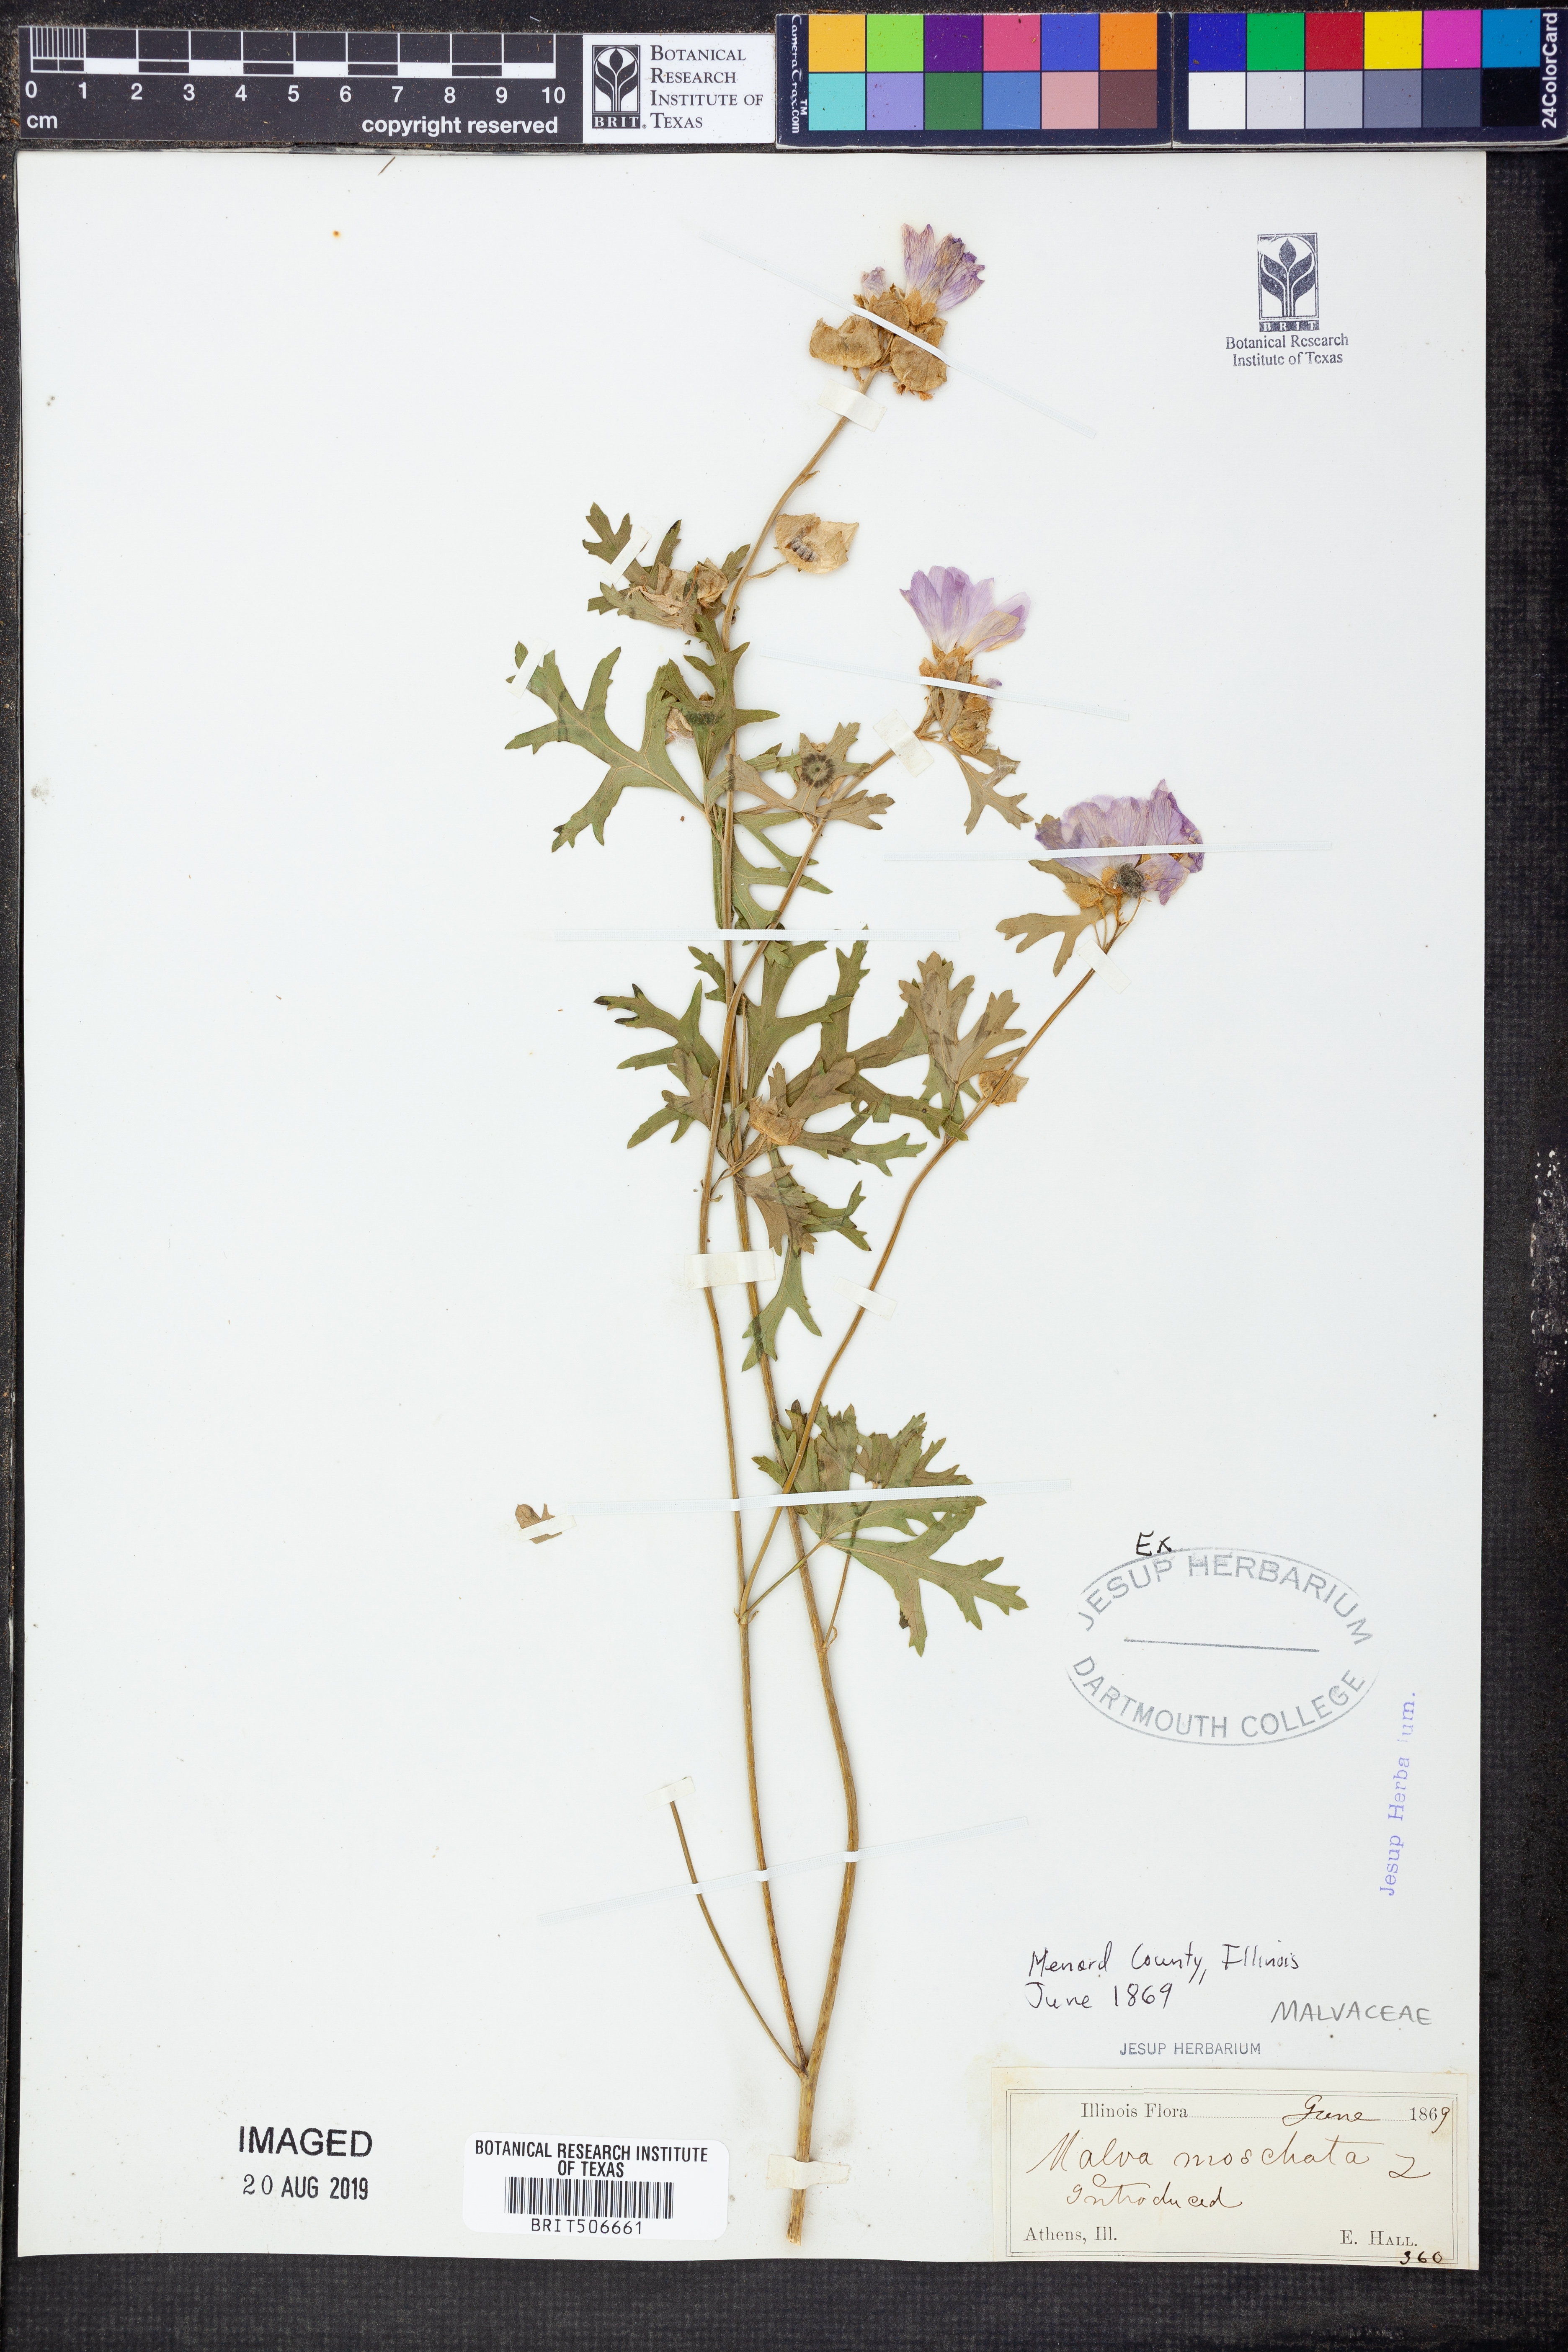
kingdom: Plantae
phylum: Tracheophyta
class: Magnoliopsida
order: Malvales
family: Malvaceae
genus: Malva
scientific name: Malva moschata
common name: Musk mallow
